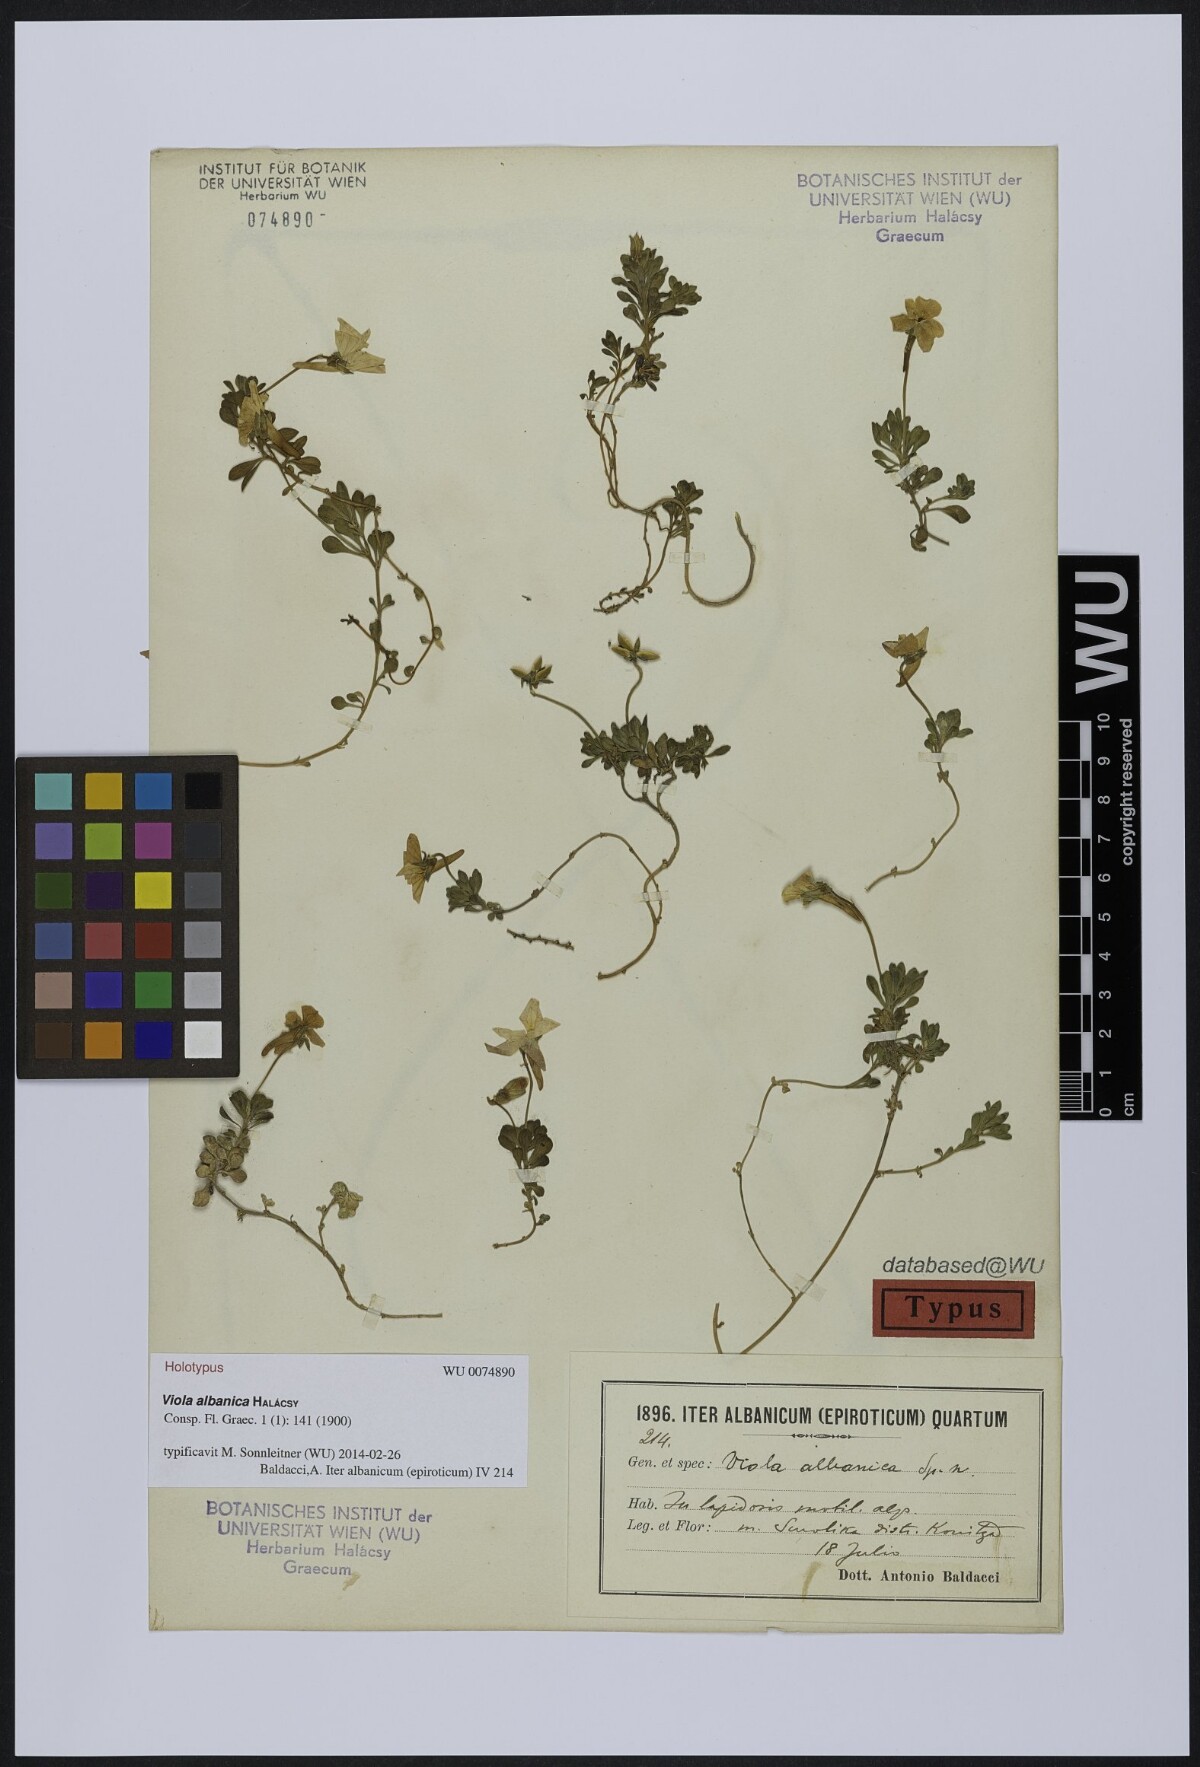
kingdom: Plantae
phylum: Tracheophyta
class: Magnoliopsida
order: Malpighiales
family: Violaceae
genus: Viola
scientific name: Viola albanica
